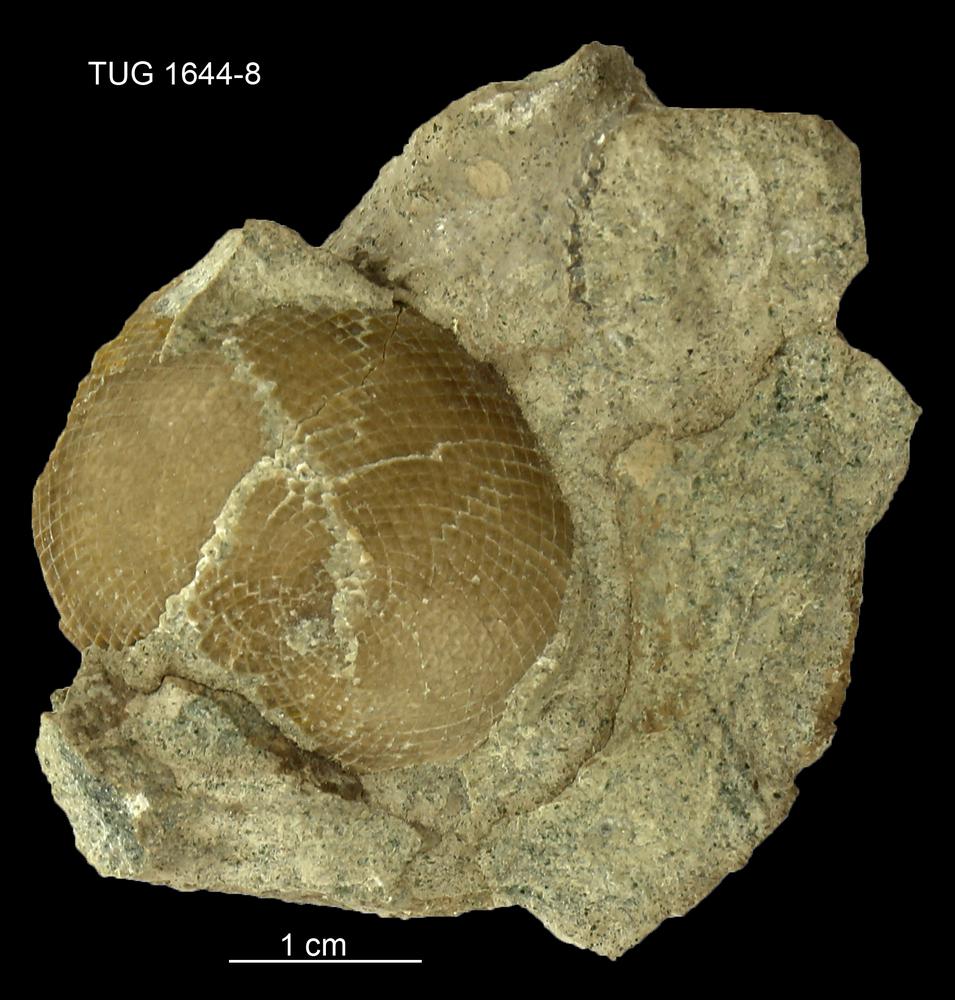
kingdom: Plantae
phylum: Chlorophyta
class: Chlorophyceae
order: Receptaculitales
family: Receptaculitaceae
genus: Receptaculites
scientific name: Receptaculites
